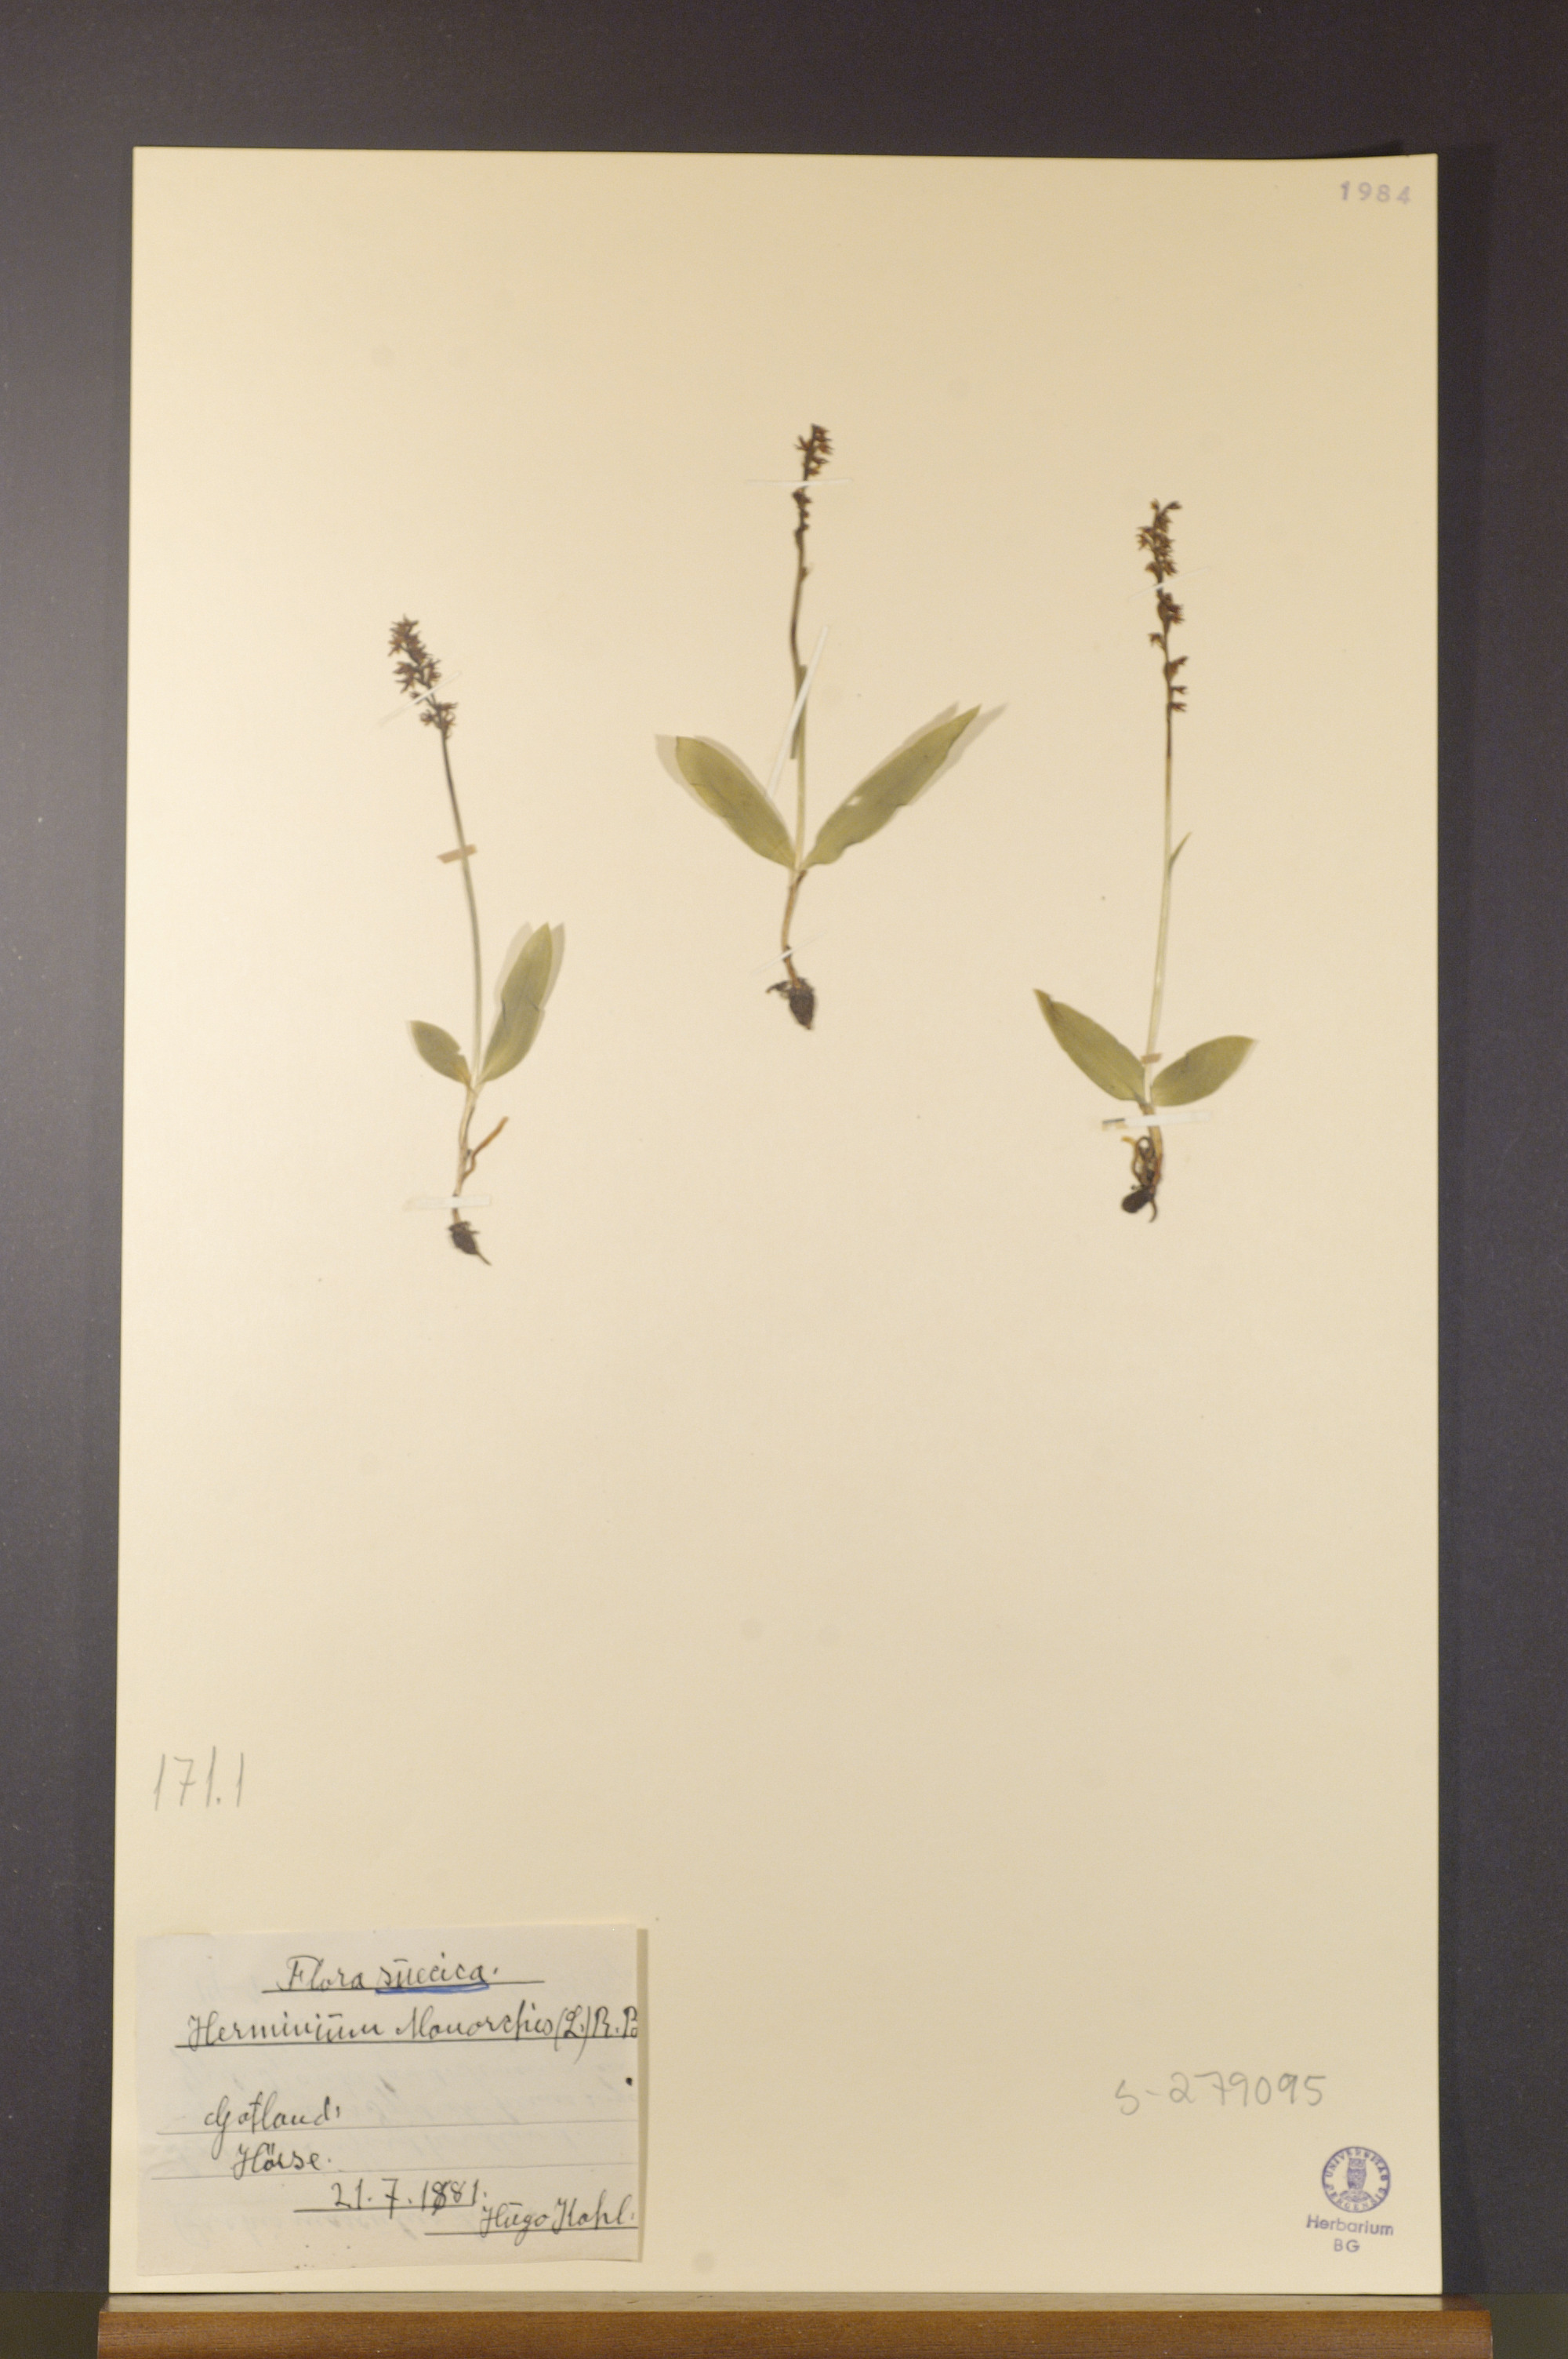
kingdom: Plantae
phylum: Tracheophyta
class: Liliopsida
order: Asparagales
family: Orchidaceae
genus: Herminium
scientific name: Herminium monorchis
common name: Musk orchid
